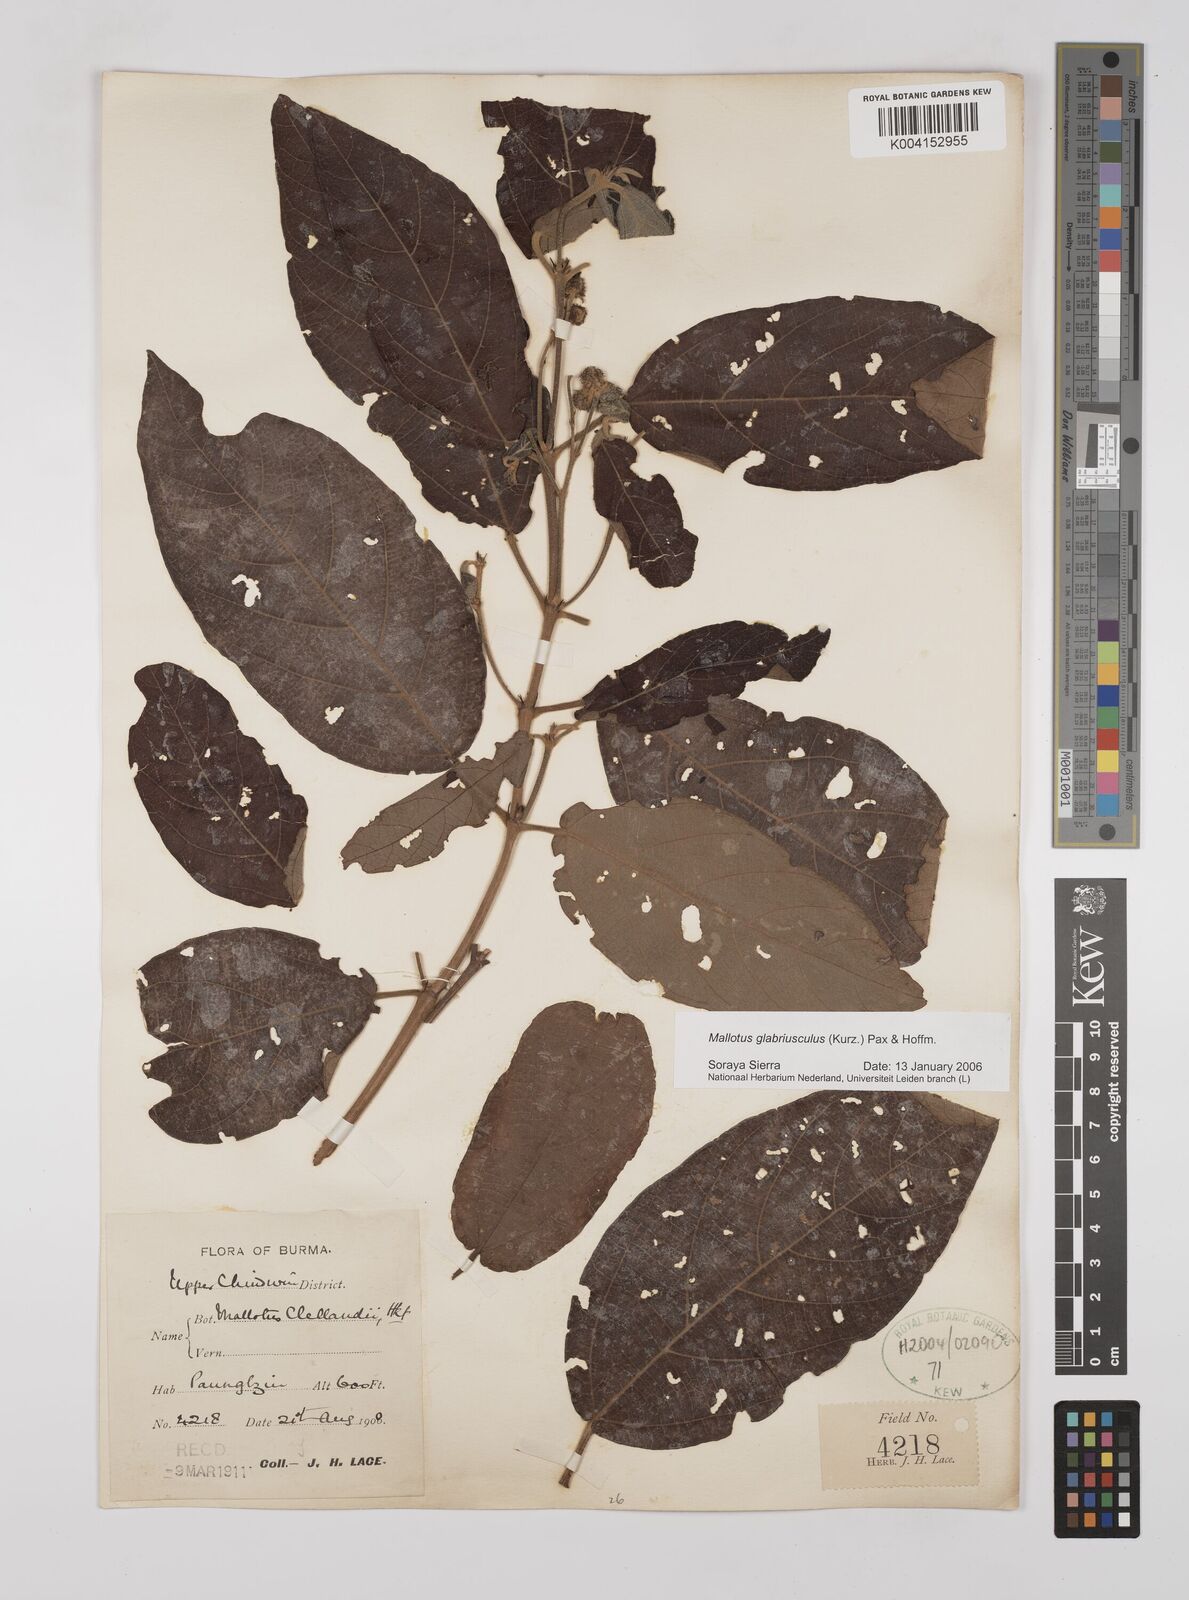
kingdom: Plantae
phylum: Tracheophyta
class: Magnoliopsida
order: Malpighiales
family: Euphorbiaceae
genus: Mallotus
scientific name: Mallotus glabriusculus
